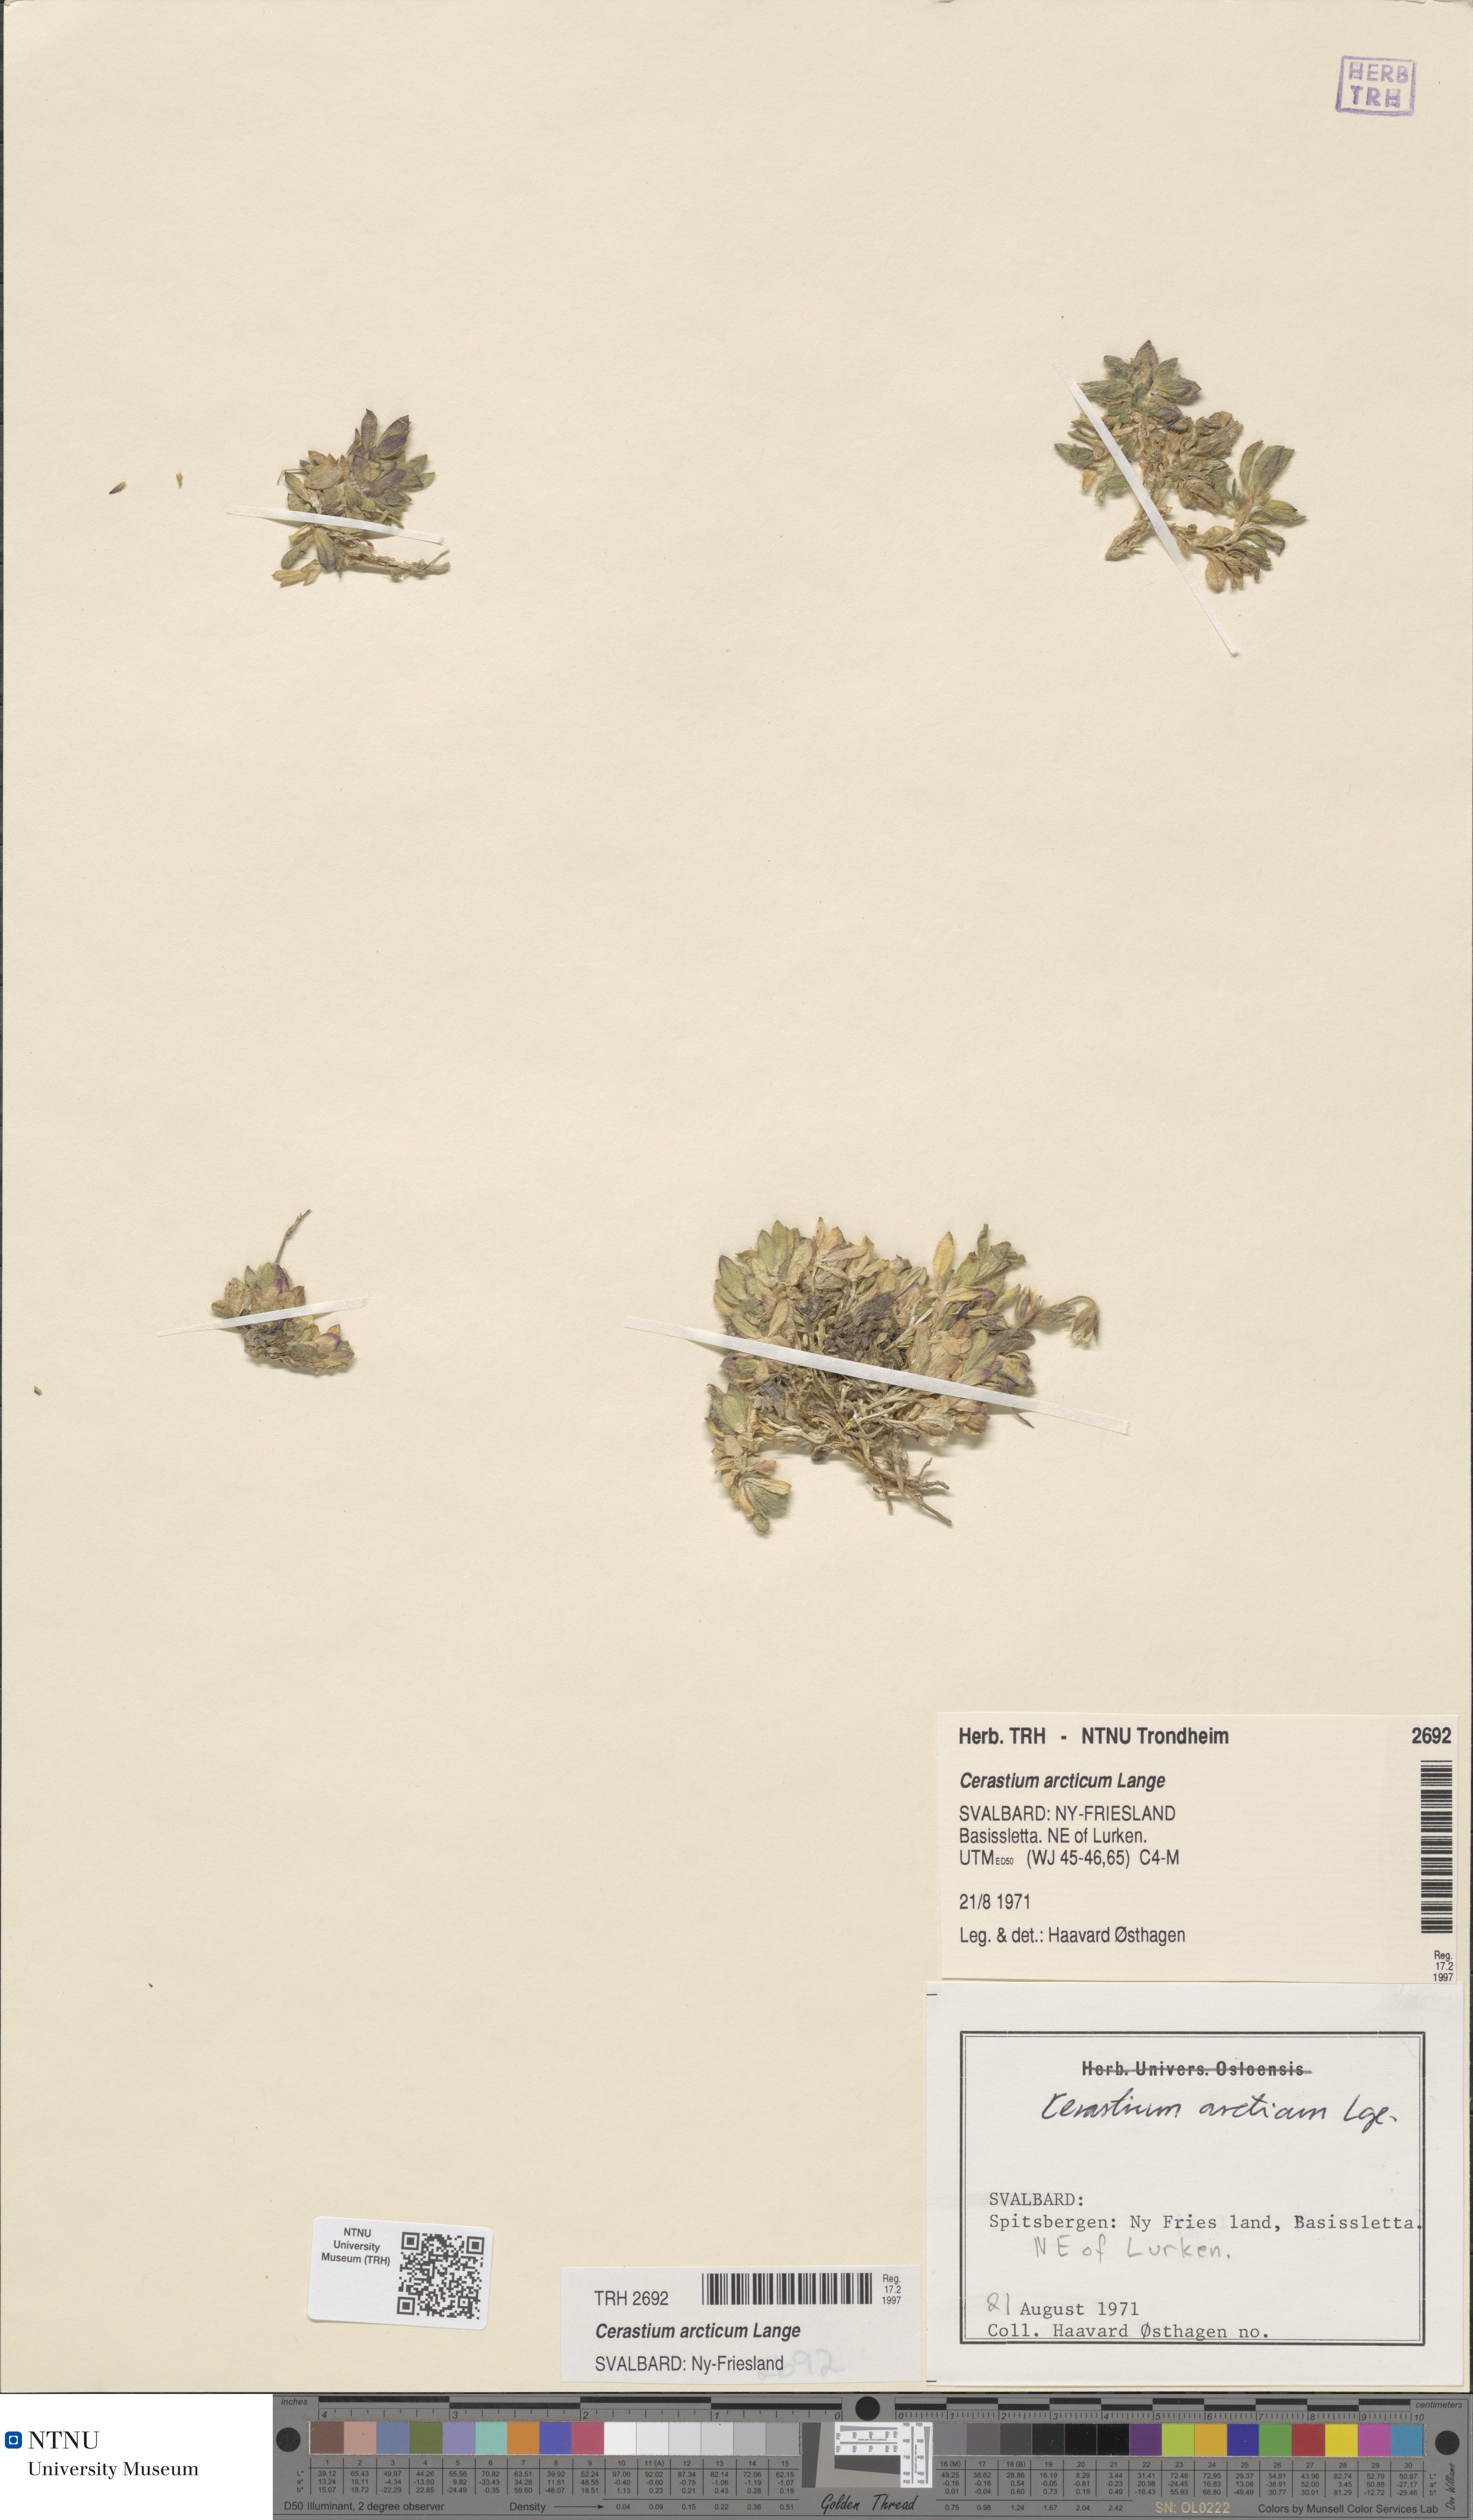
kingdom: Plantae
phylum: Tracheophyta
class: Magnoliopsida
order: Caryophyllales
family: Caryophyllaceae
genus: Cerastium
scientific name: Cerastium arcticum
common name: Arctic mouse-ear
